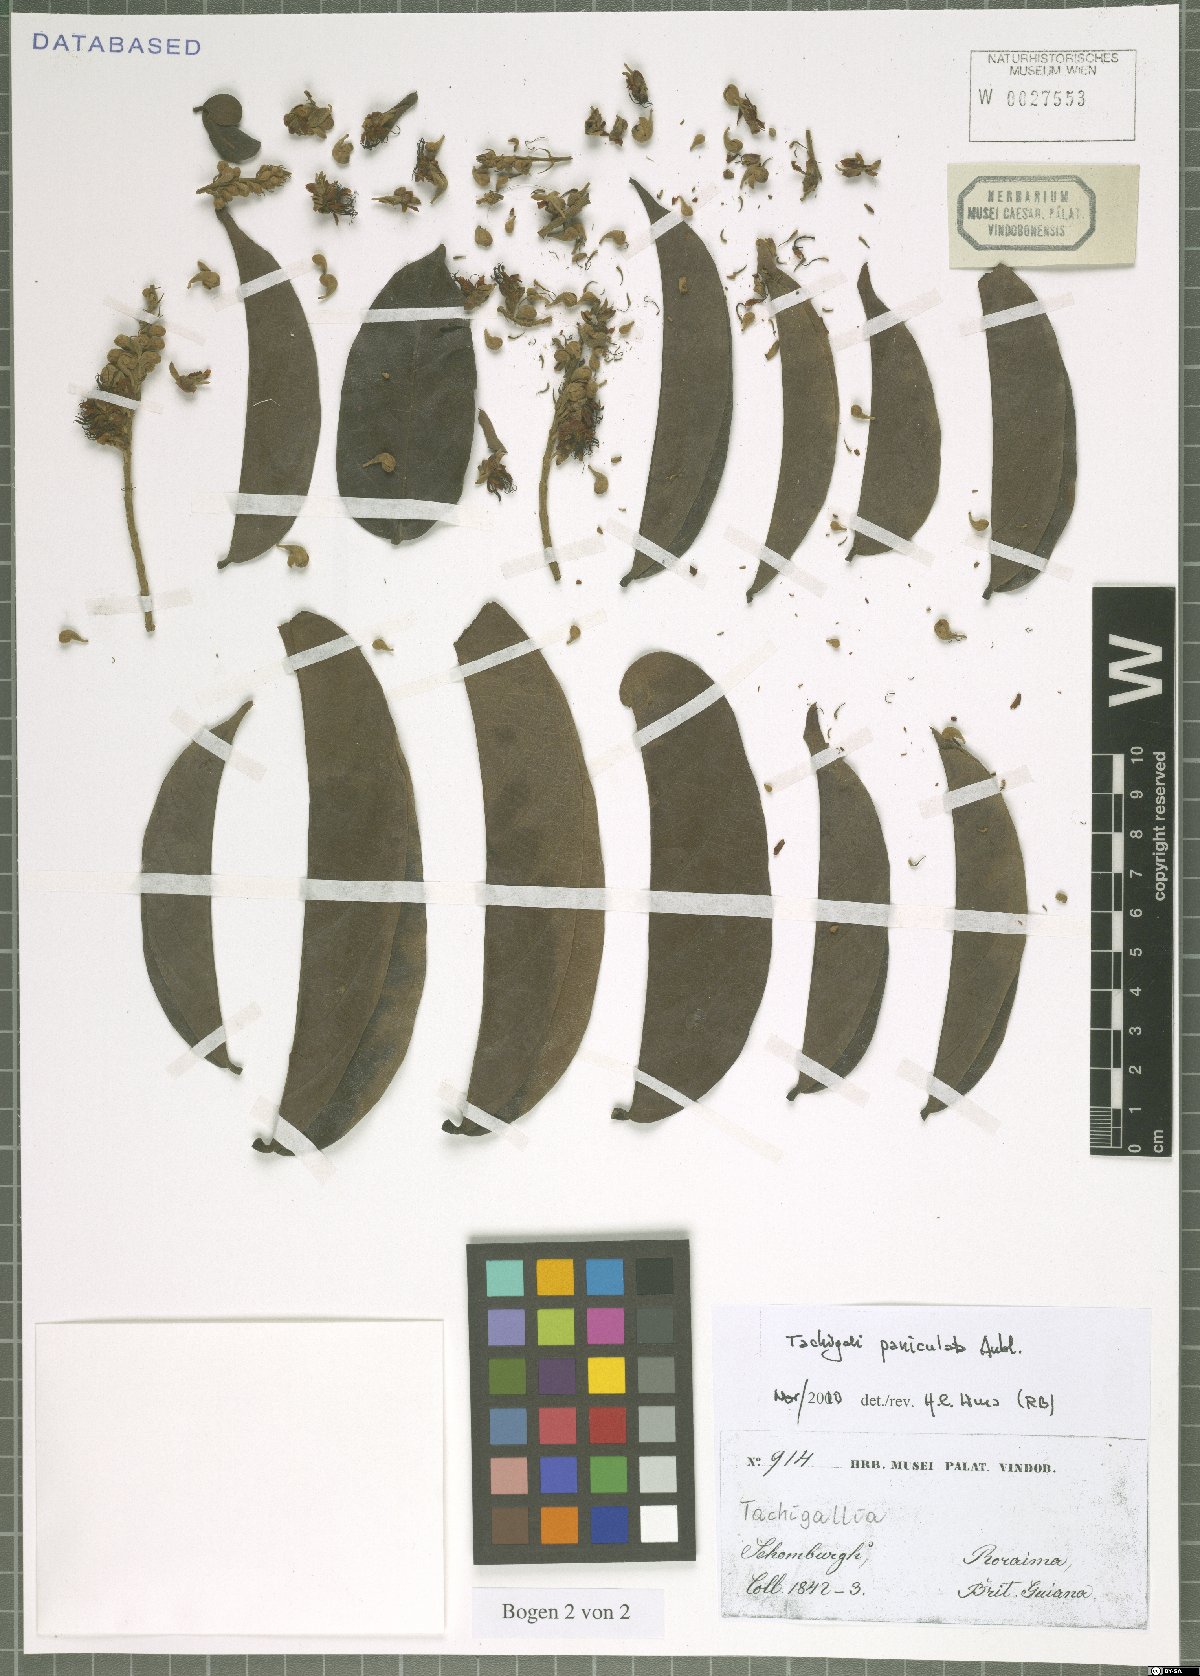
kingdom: Plantae
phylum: Tracheophyta
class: Magnoliopsida
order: Fabales
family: Fabaceae
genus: Tachigali
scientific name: Tachigali paniculata
